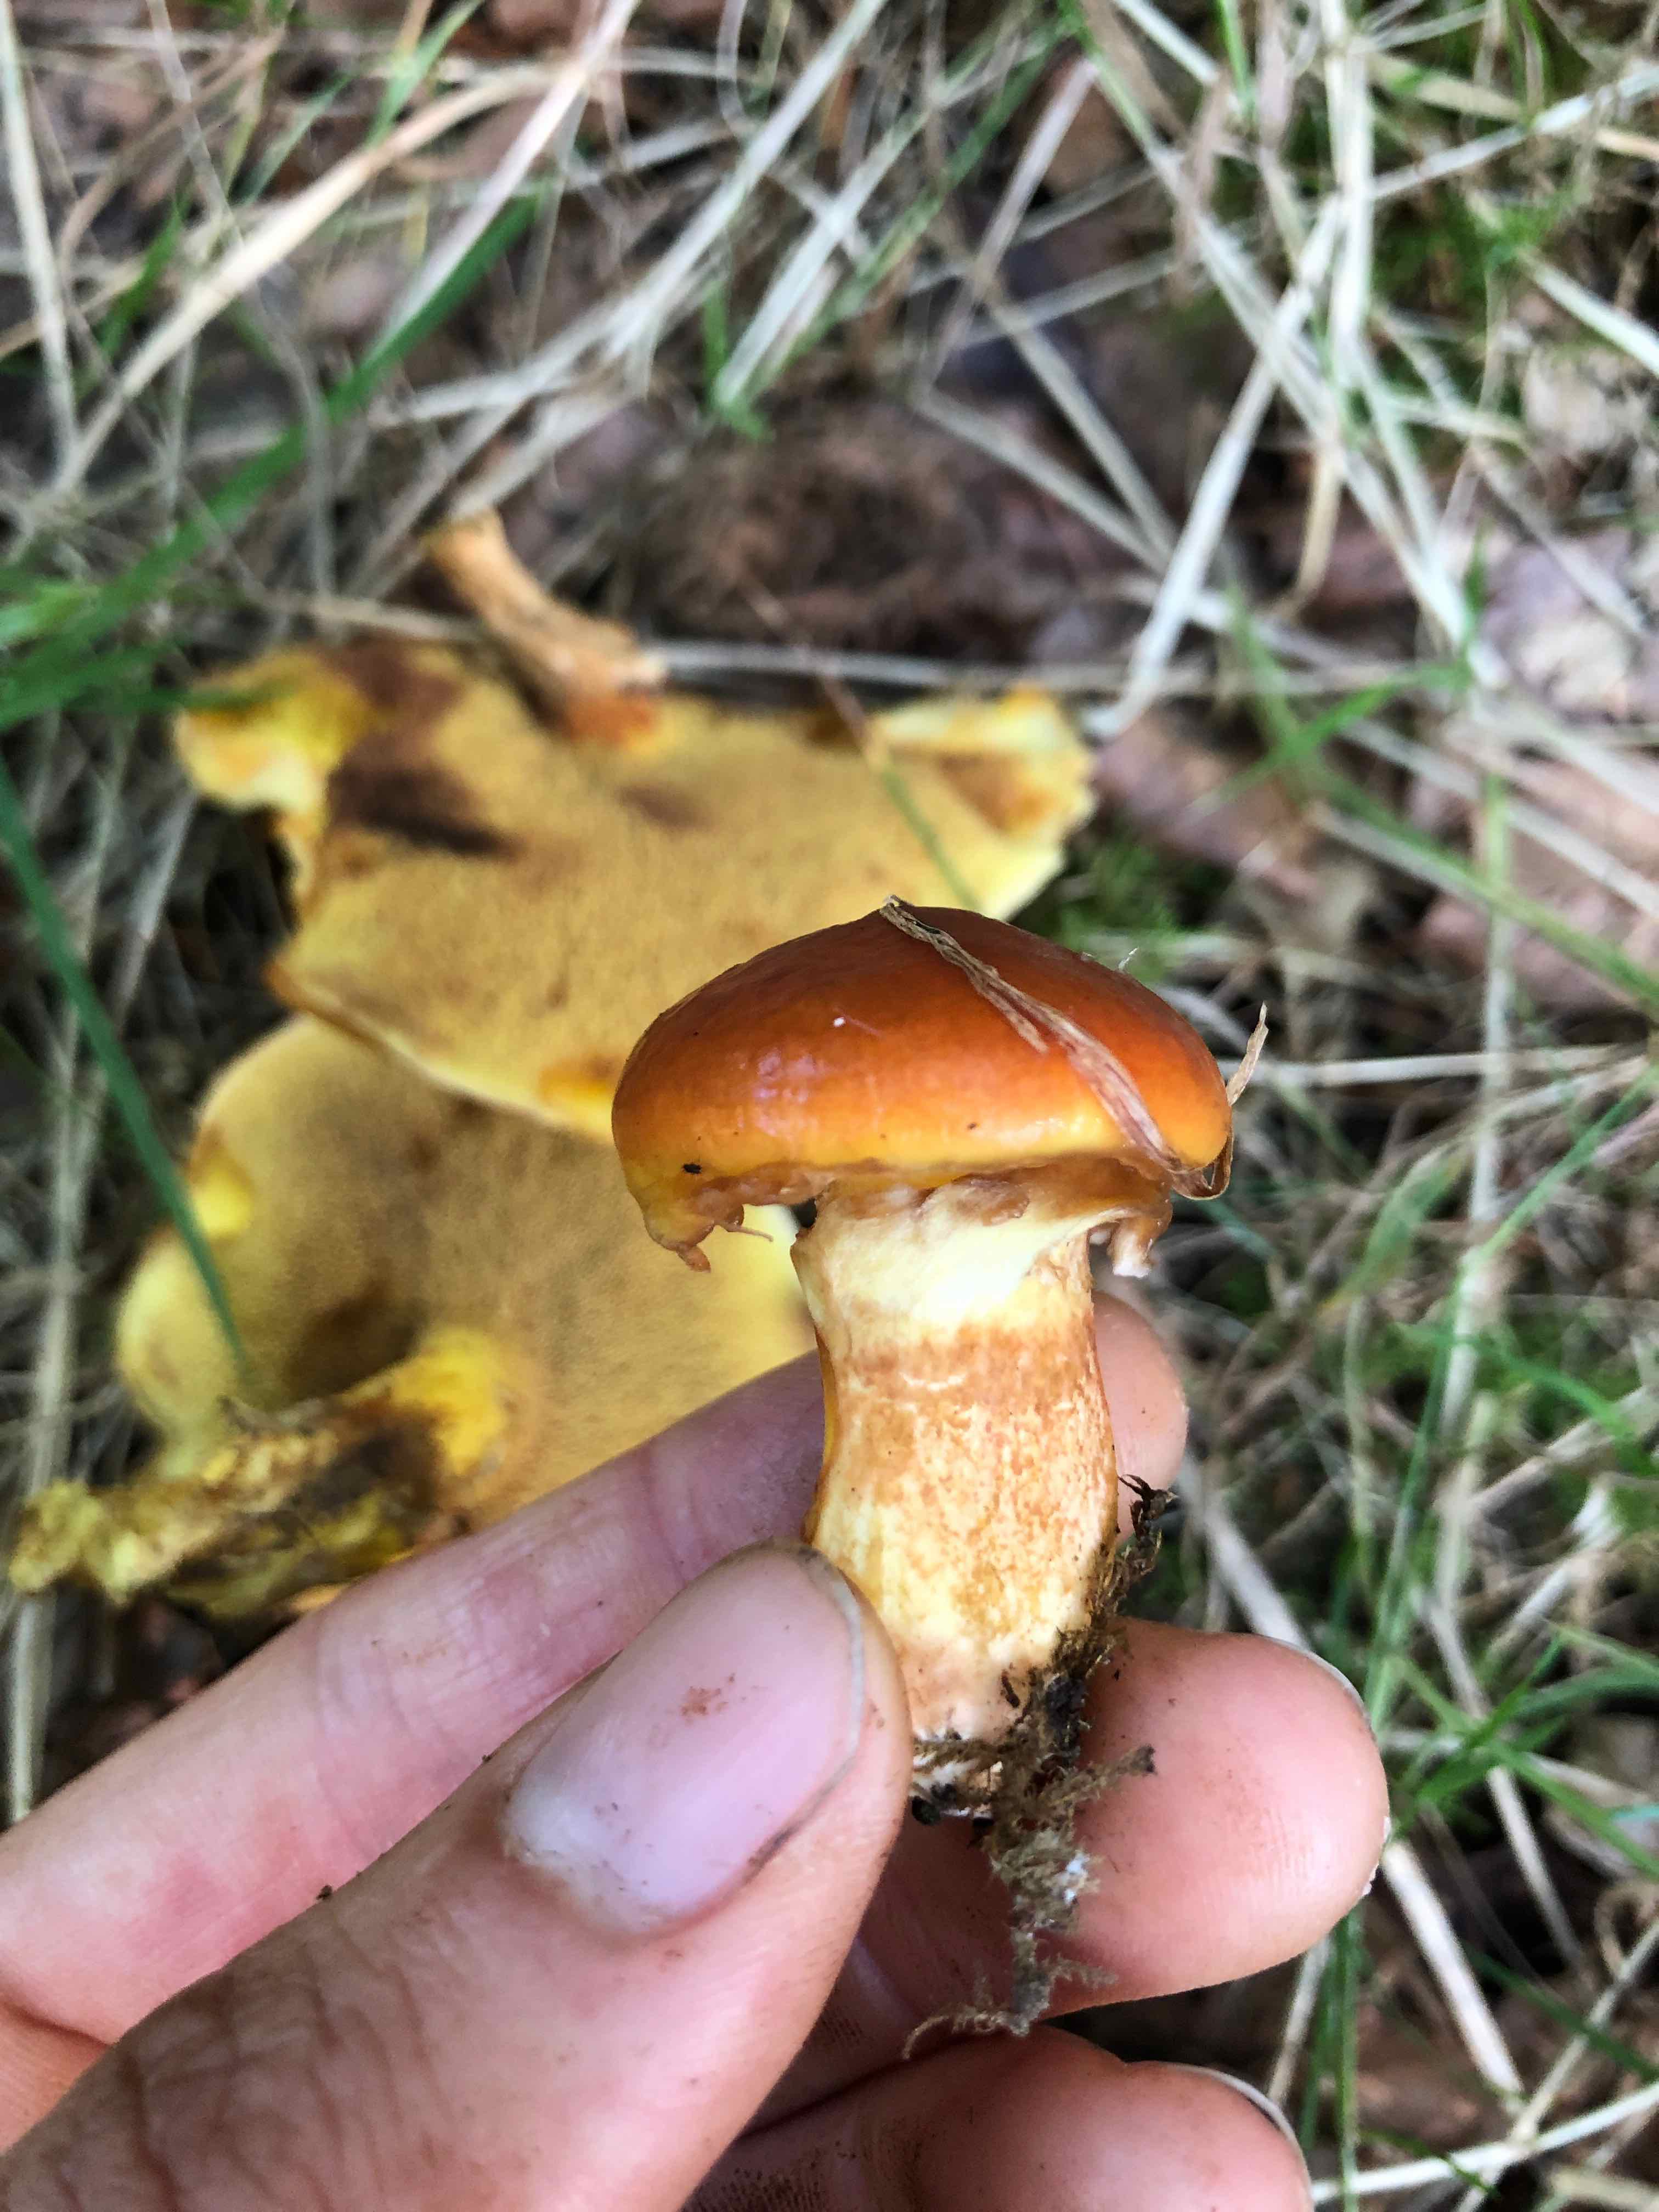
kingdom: Fungi
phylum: Basidiomycota
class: Agaricomycetes
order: Boletales
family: Suillaceae
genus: Suillus
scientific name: Suillus grevillei
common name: lærke-slimrørhat
